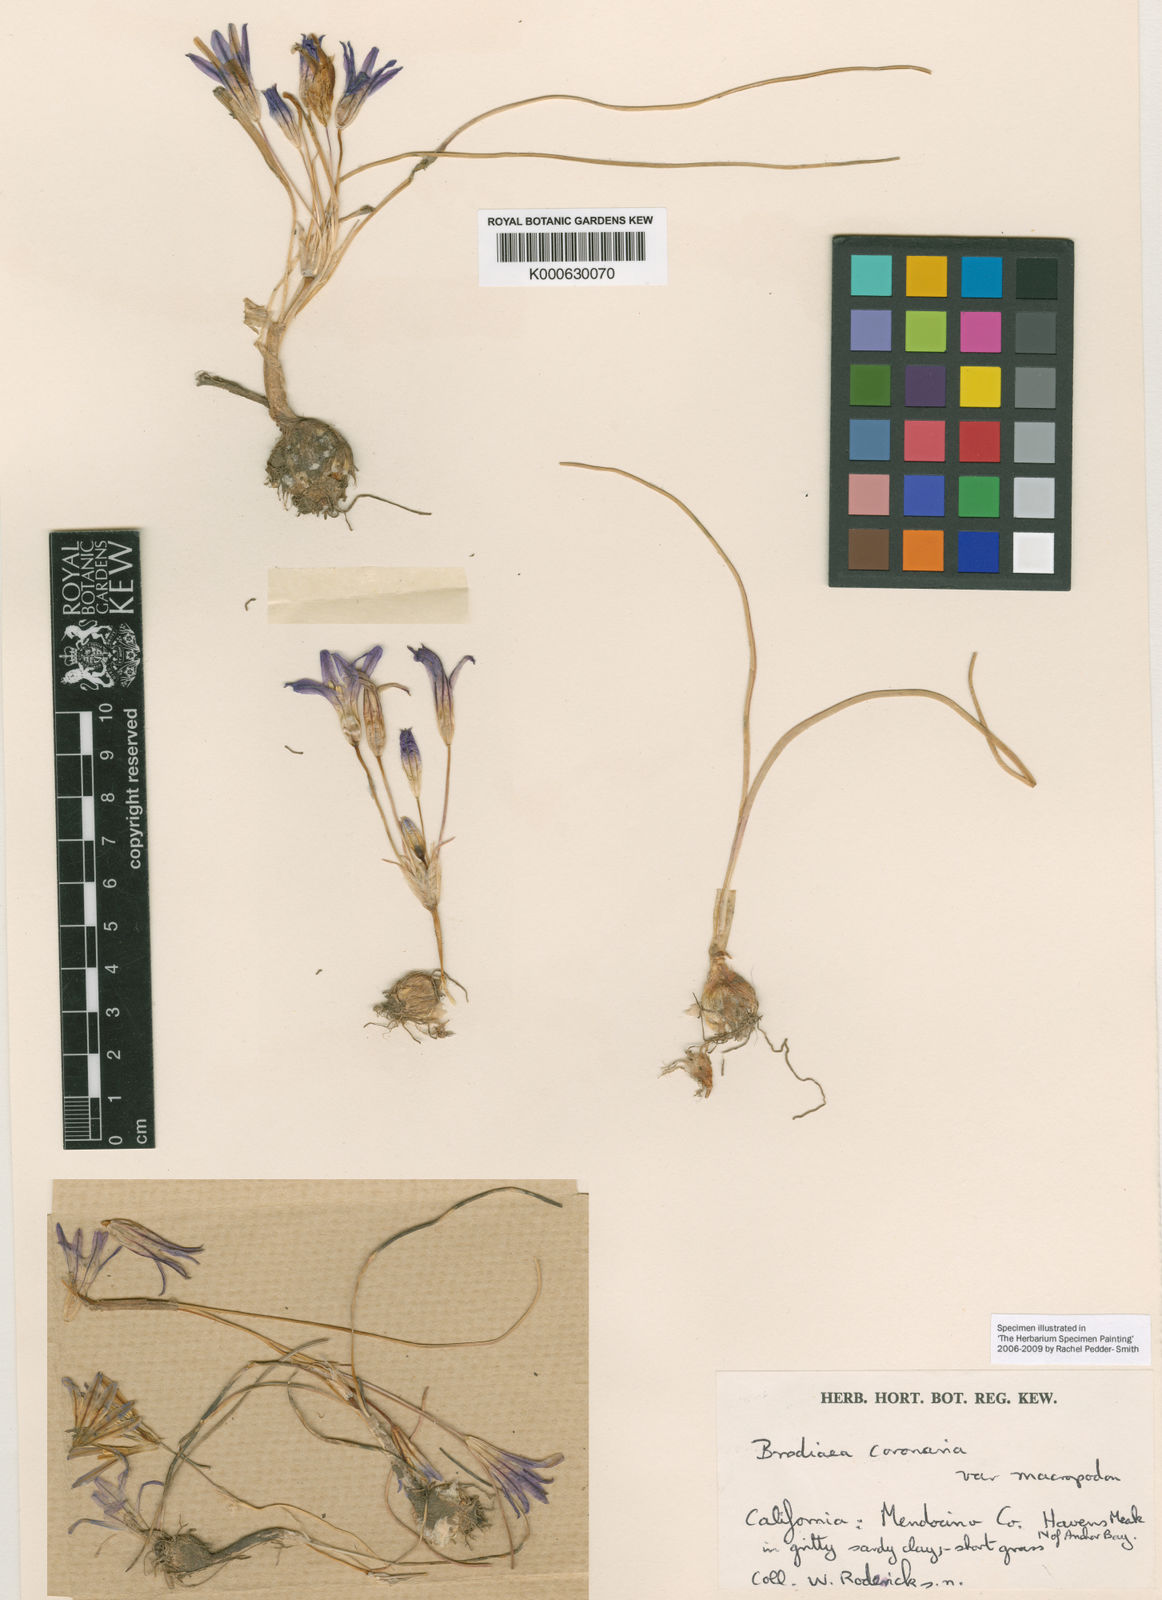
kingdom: Plantae
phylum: Tracheophyta
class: Liliopsida
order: Asparagales
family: Asparagaceae
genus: Brodiaea
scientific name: Brodiaea terrestris
